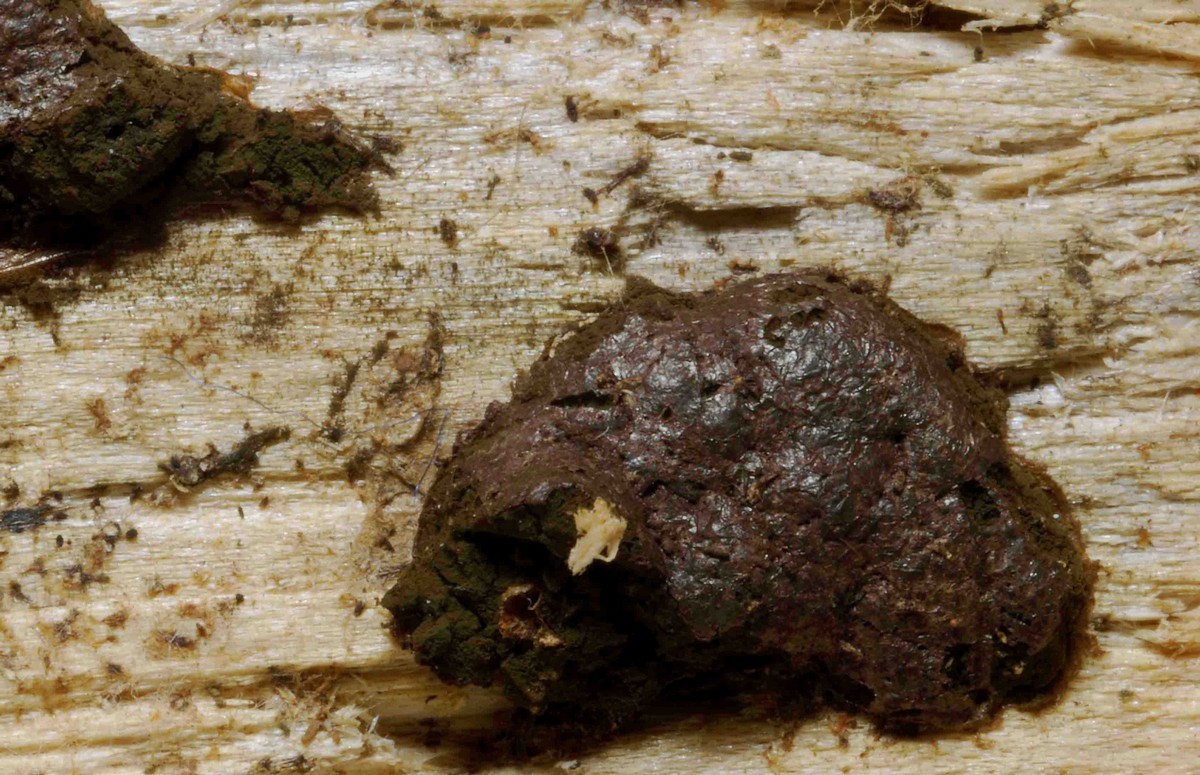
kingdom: Protozoa
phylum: Mycetozoa
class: Myxomycetes
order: Cribrariales
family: Tubiferaceae
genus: Licaethalium
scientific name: Licaethalium olivaceum
